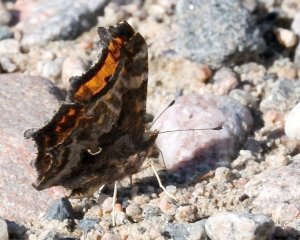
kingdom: Animalia
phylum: Arthropoda
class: Insecta
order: Lepidoptera
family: Nymphalidae
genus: Polygonia
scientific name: Polygonia comma
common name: Eastern Comma
